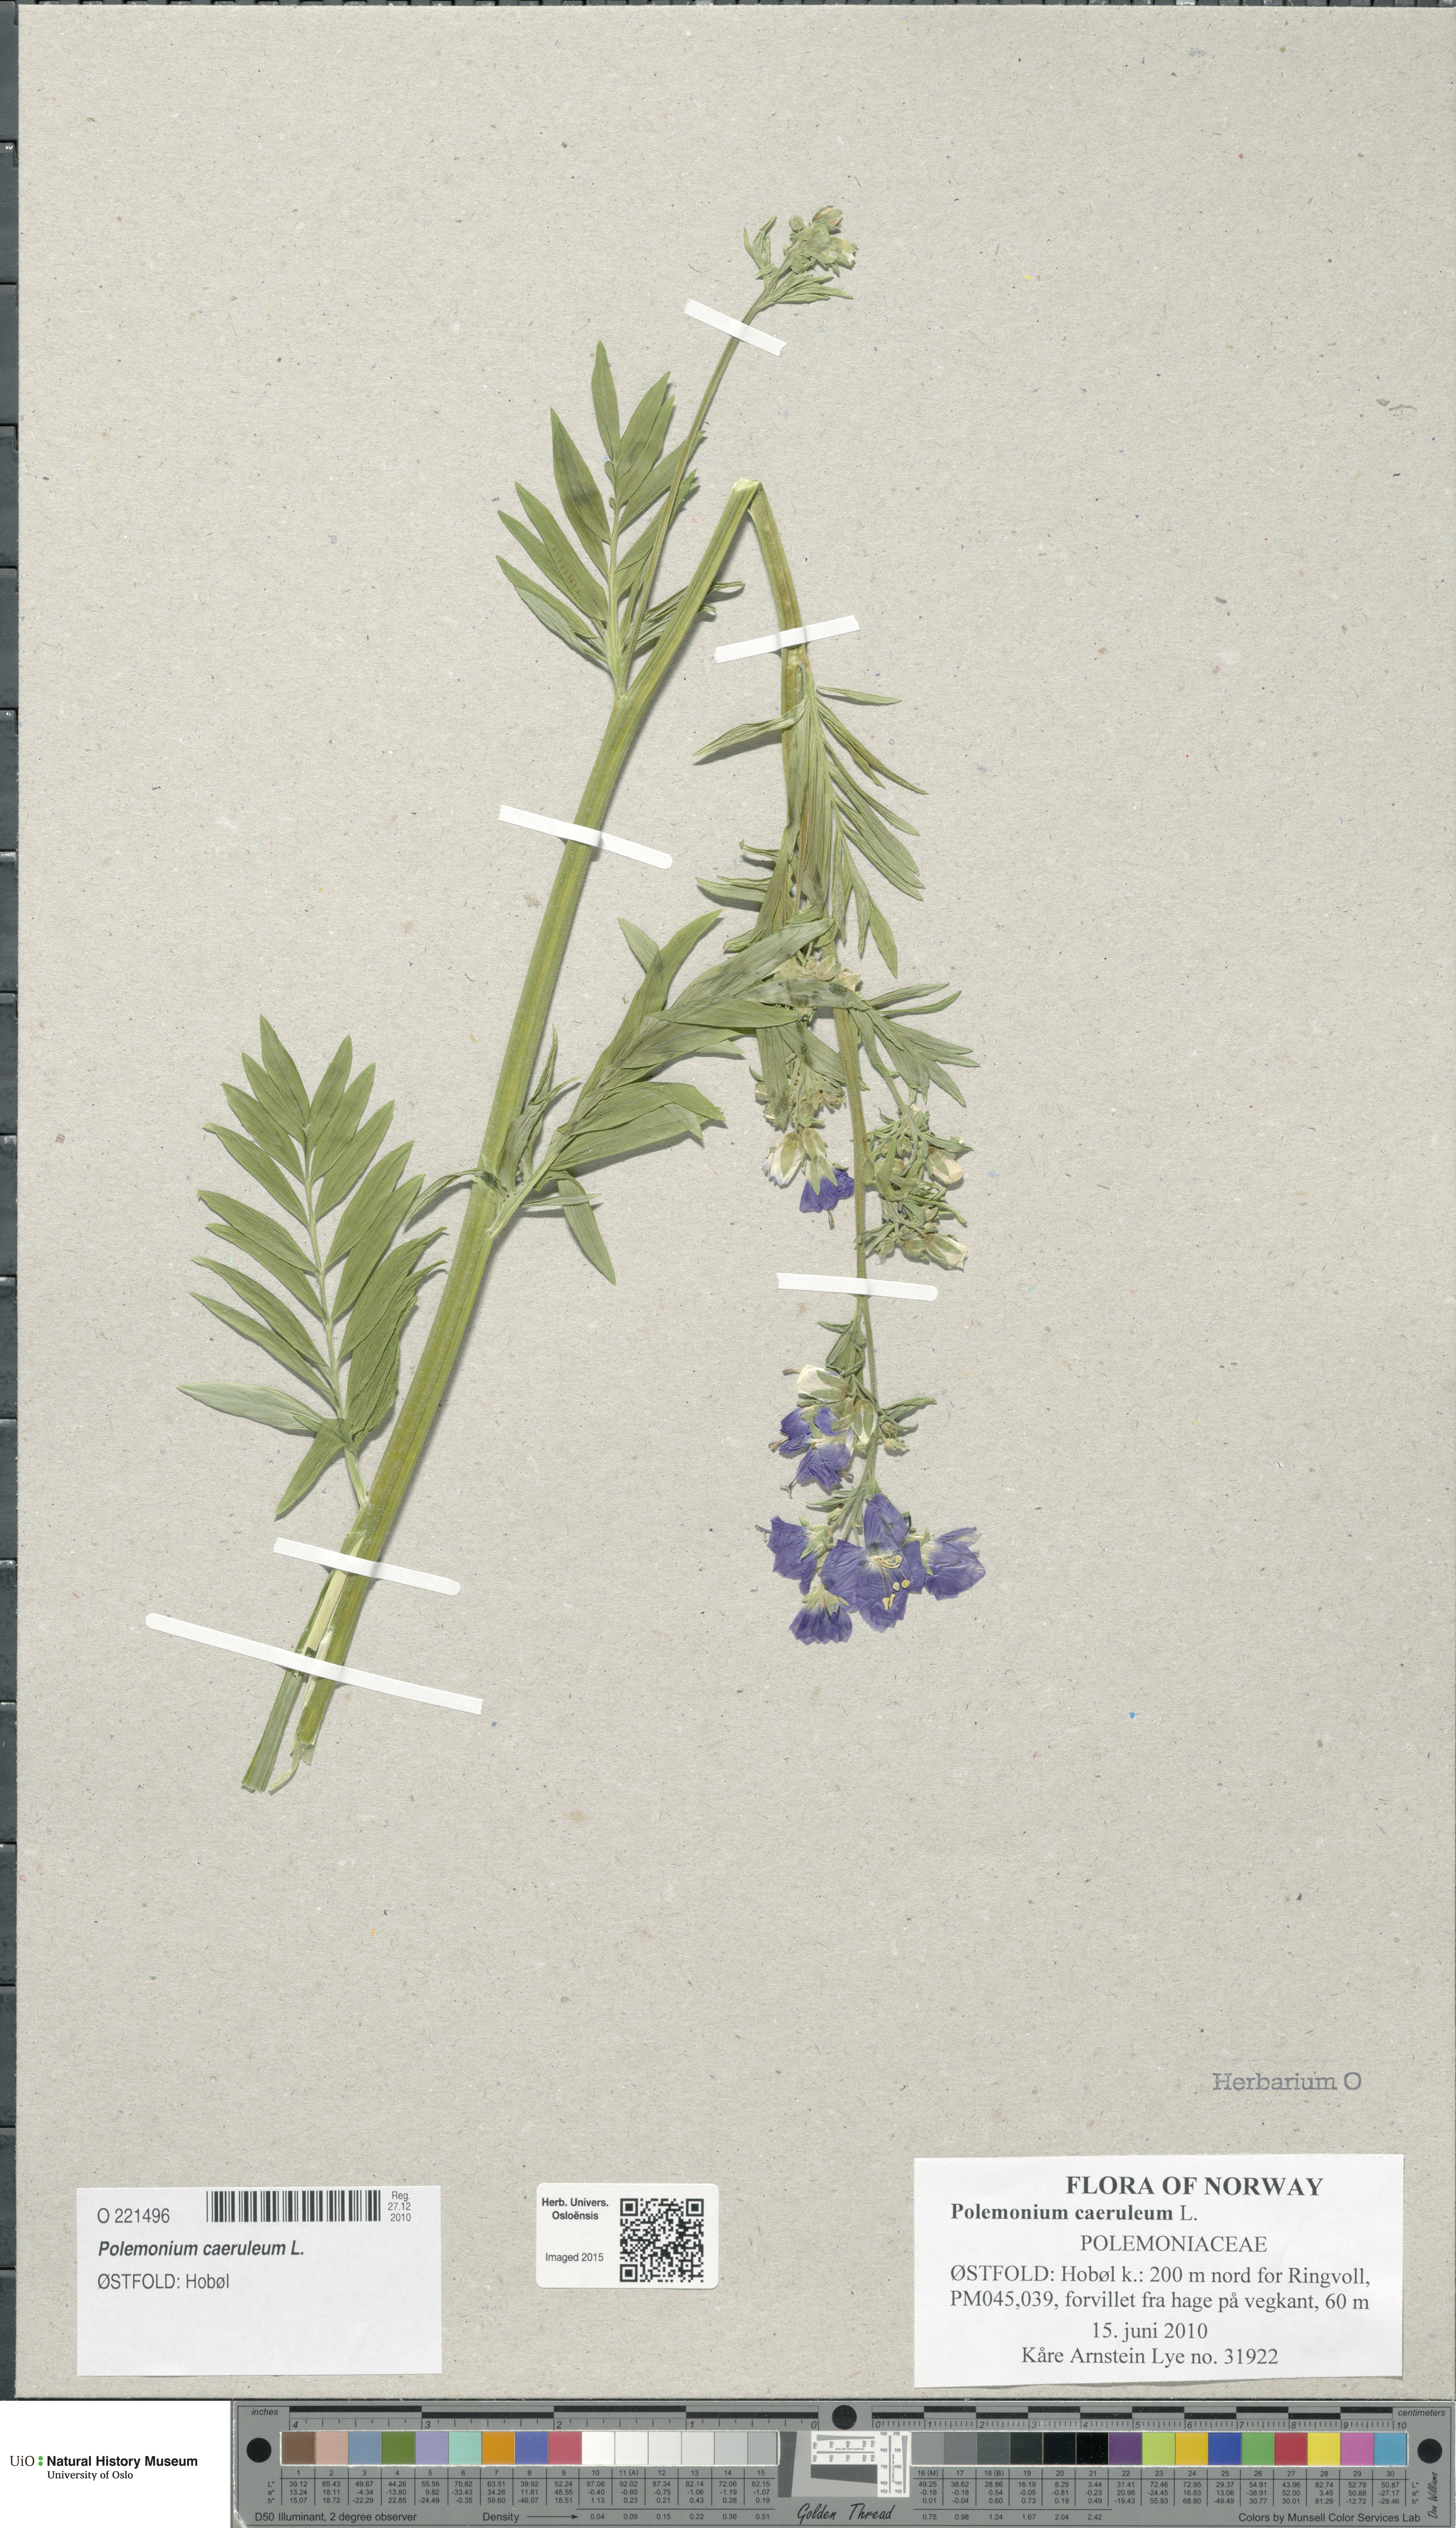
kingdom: Plantae
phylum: Tracheophyta
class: Magnoliopsida
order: Ericales
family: Polemoniaceae
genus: Polemonium
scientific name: Polemonium caeruleum
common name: Jacob's-ladder
